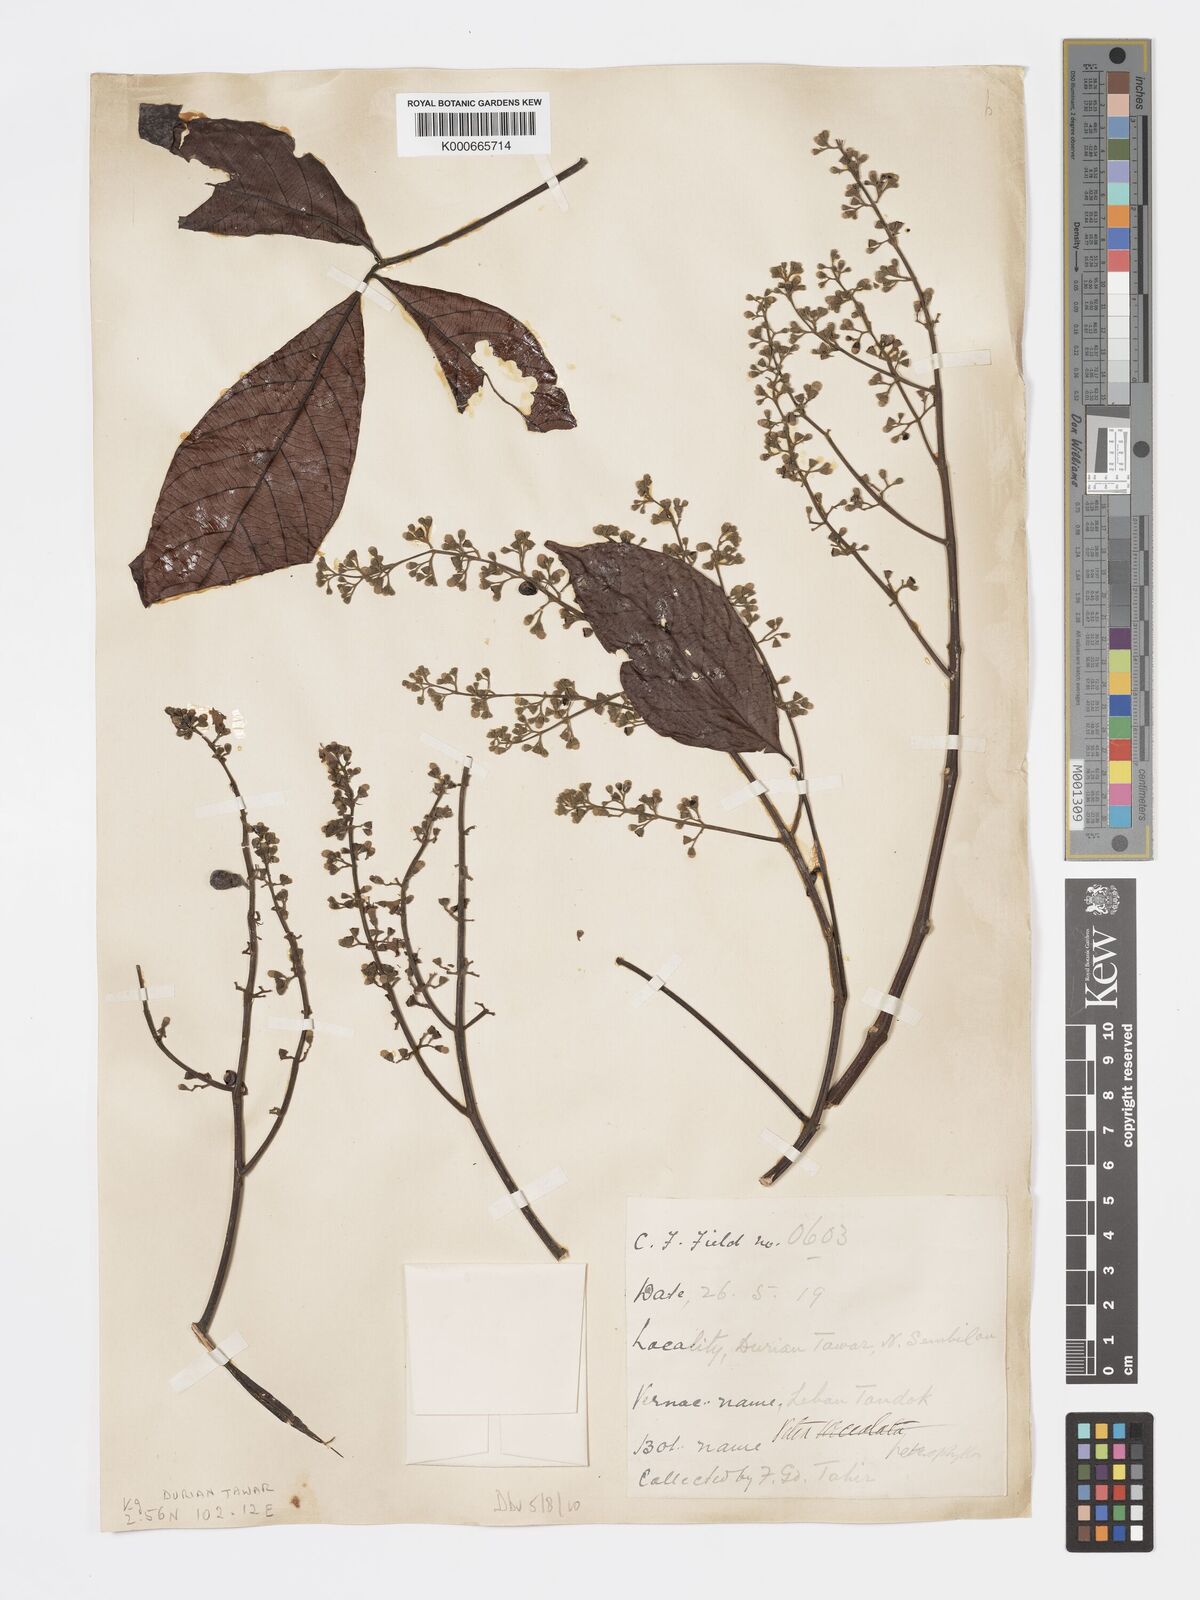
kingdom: Plantae
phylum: Tracheophyta
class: Magnoliopsida
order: Lamiales
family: Lamiaceae
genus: Vitex
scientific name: Vitex quinata
